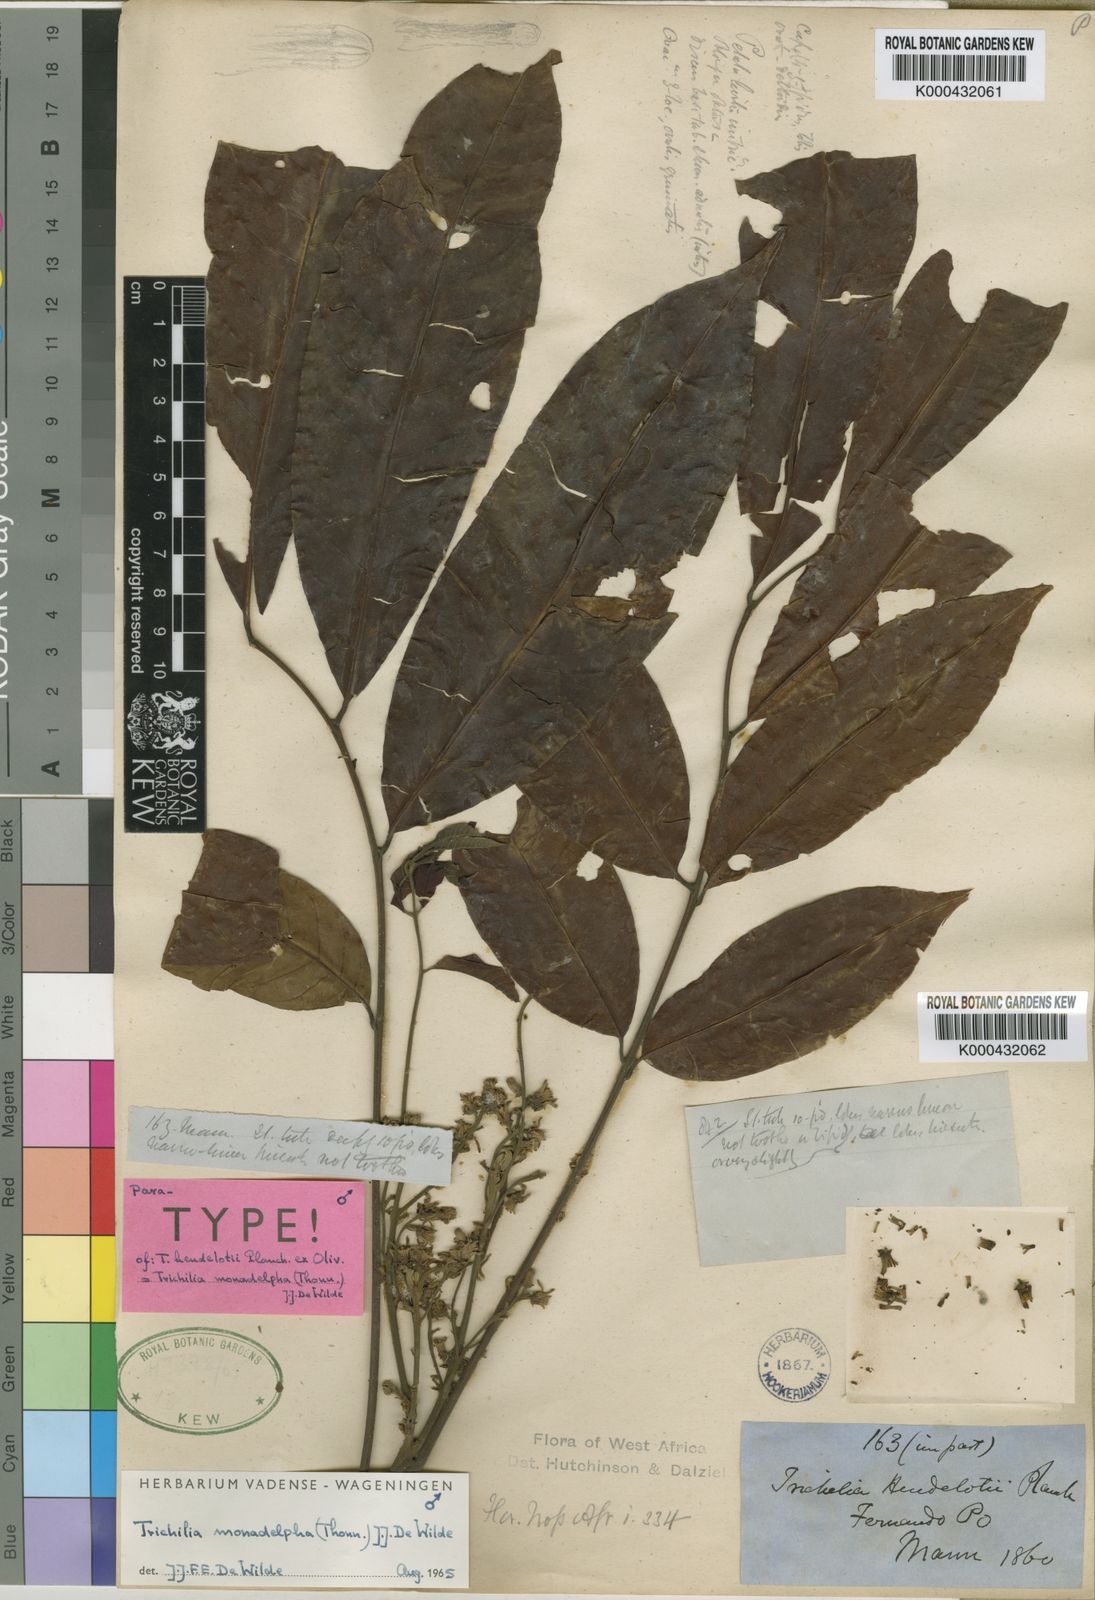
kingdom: Plantae
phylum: Tracheophyta
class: Magnoliopsida
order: Sapindales
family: Meliaceae
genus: Trichilia
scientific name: Trichilia monadelpha
